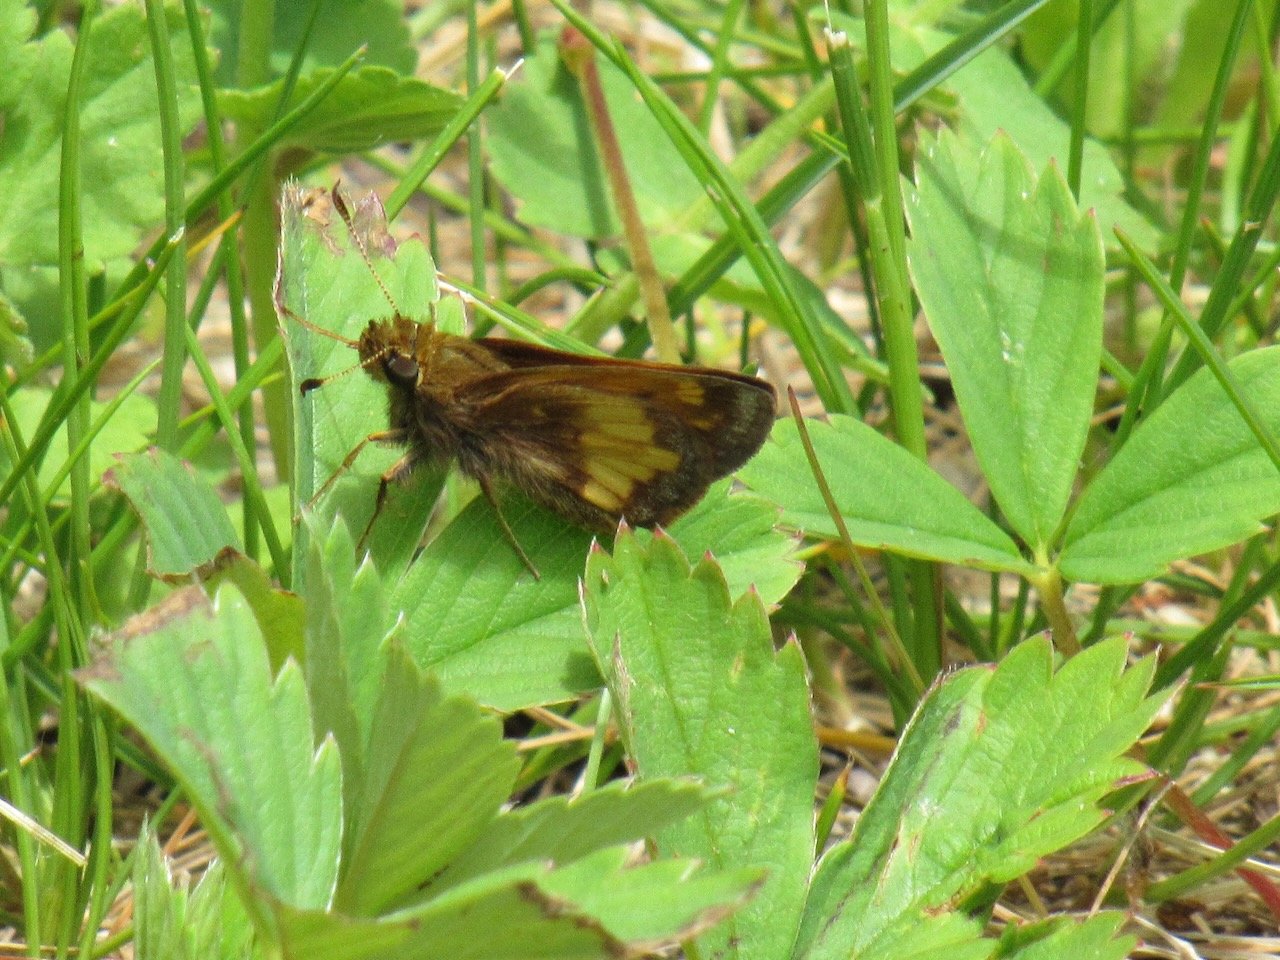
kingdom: Animalia
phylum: Arthropoda
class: Insecta
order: Lepidoptera
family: Hesperiidae
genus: Lon
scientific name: Lon hobomok
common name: Hobomok Skipper
